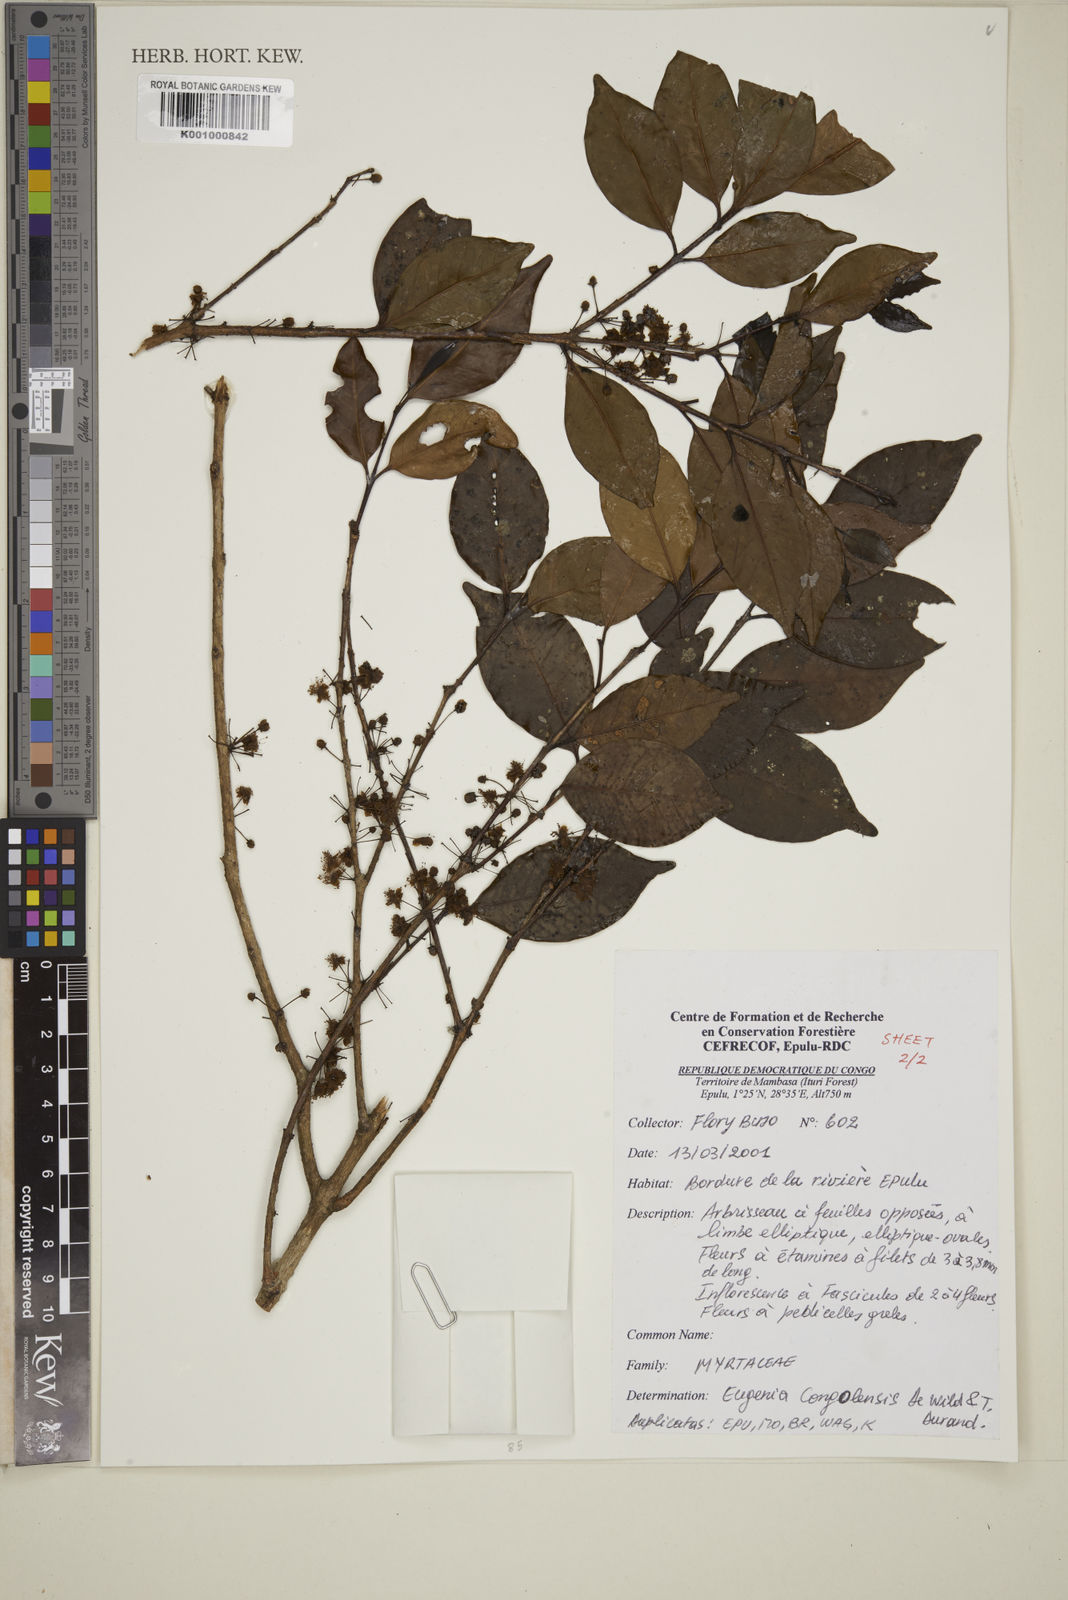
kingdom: Plantae
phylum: Tracheophyta
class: Magnoliopsida
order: Myrtales
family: Myrtaceae
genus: Eugenia
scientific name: Eugenia congolensis
